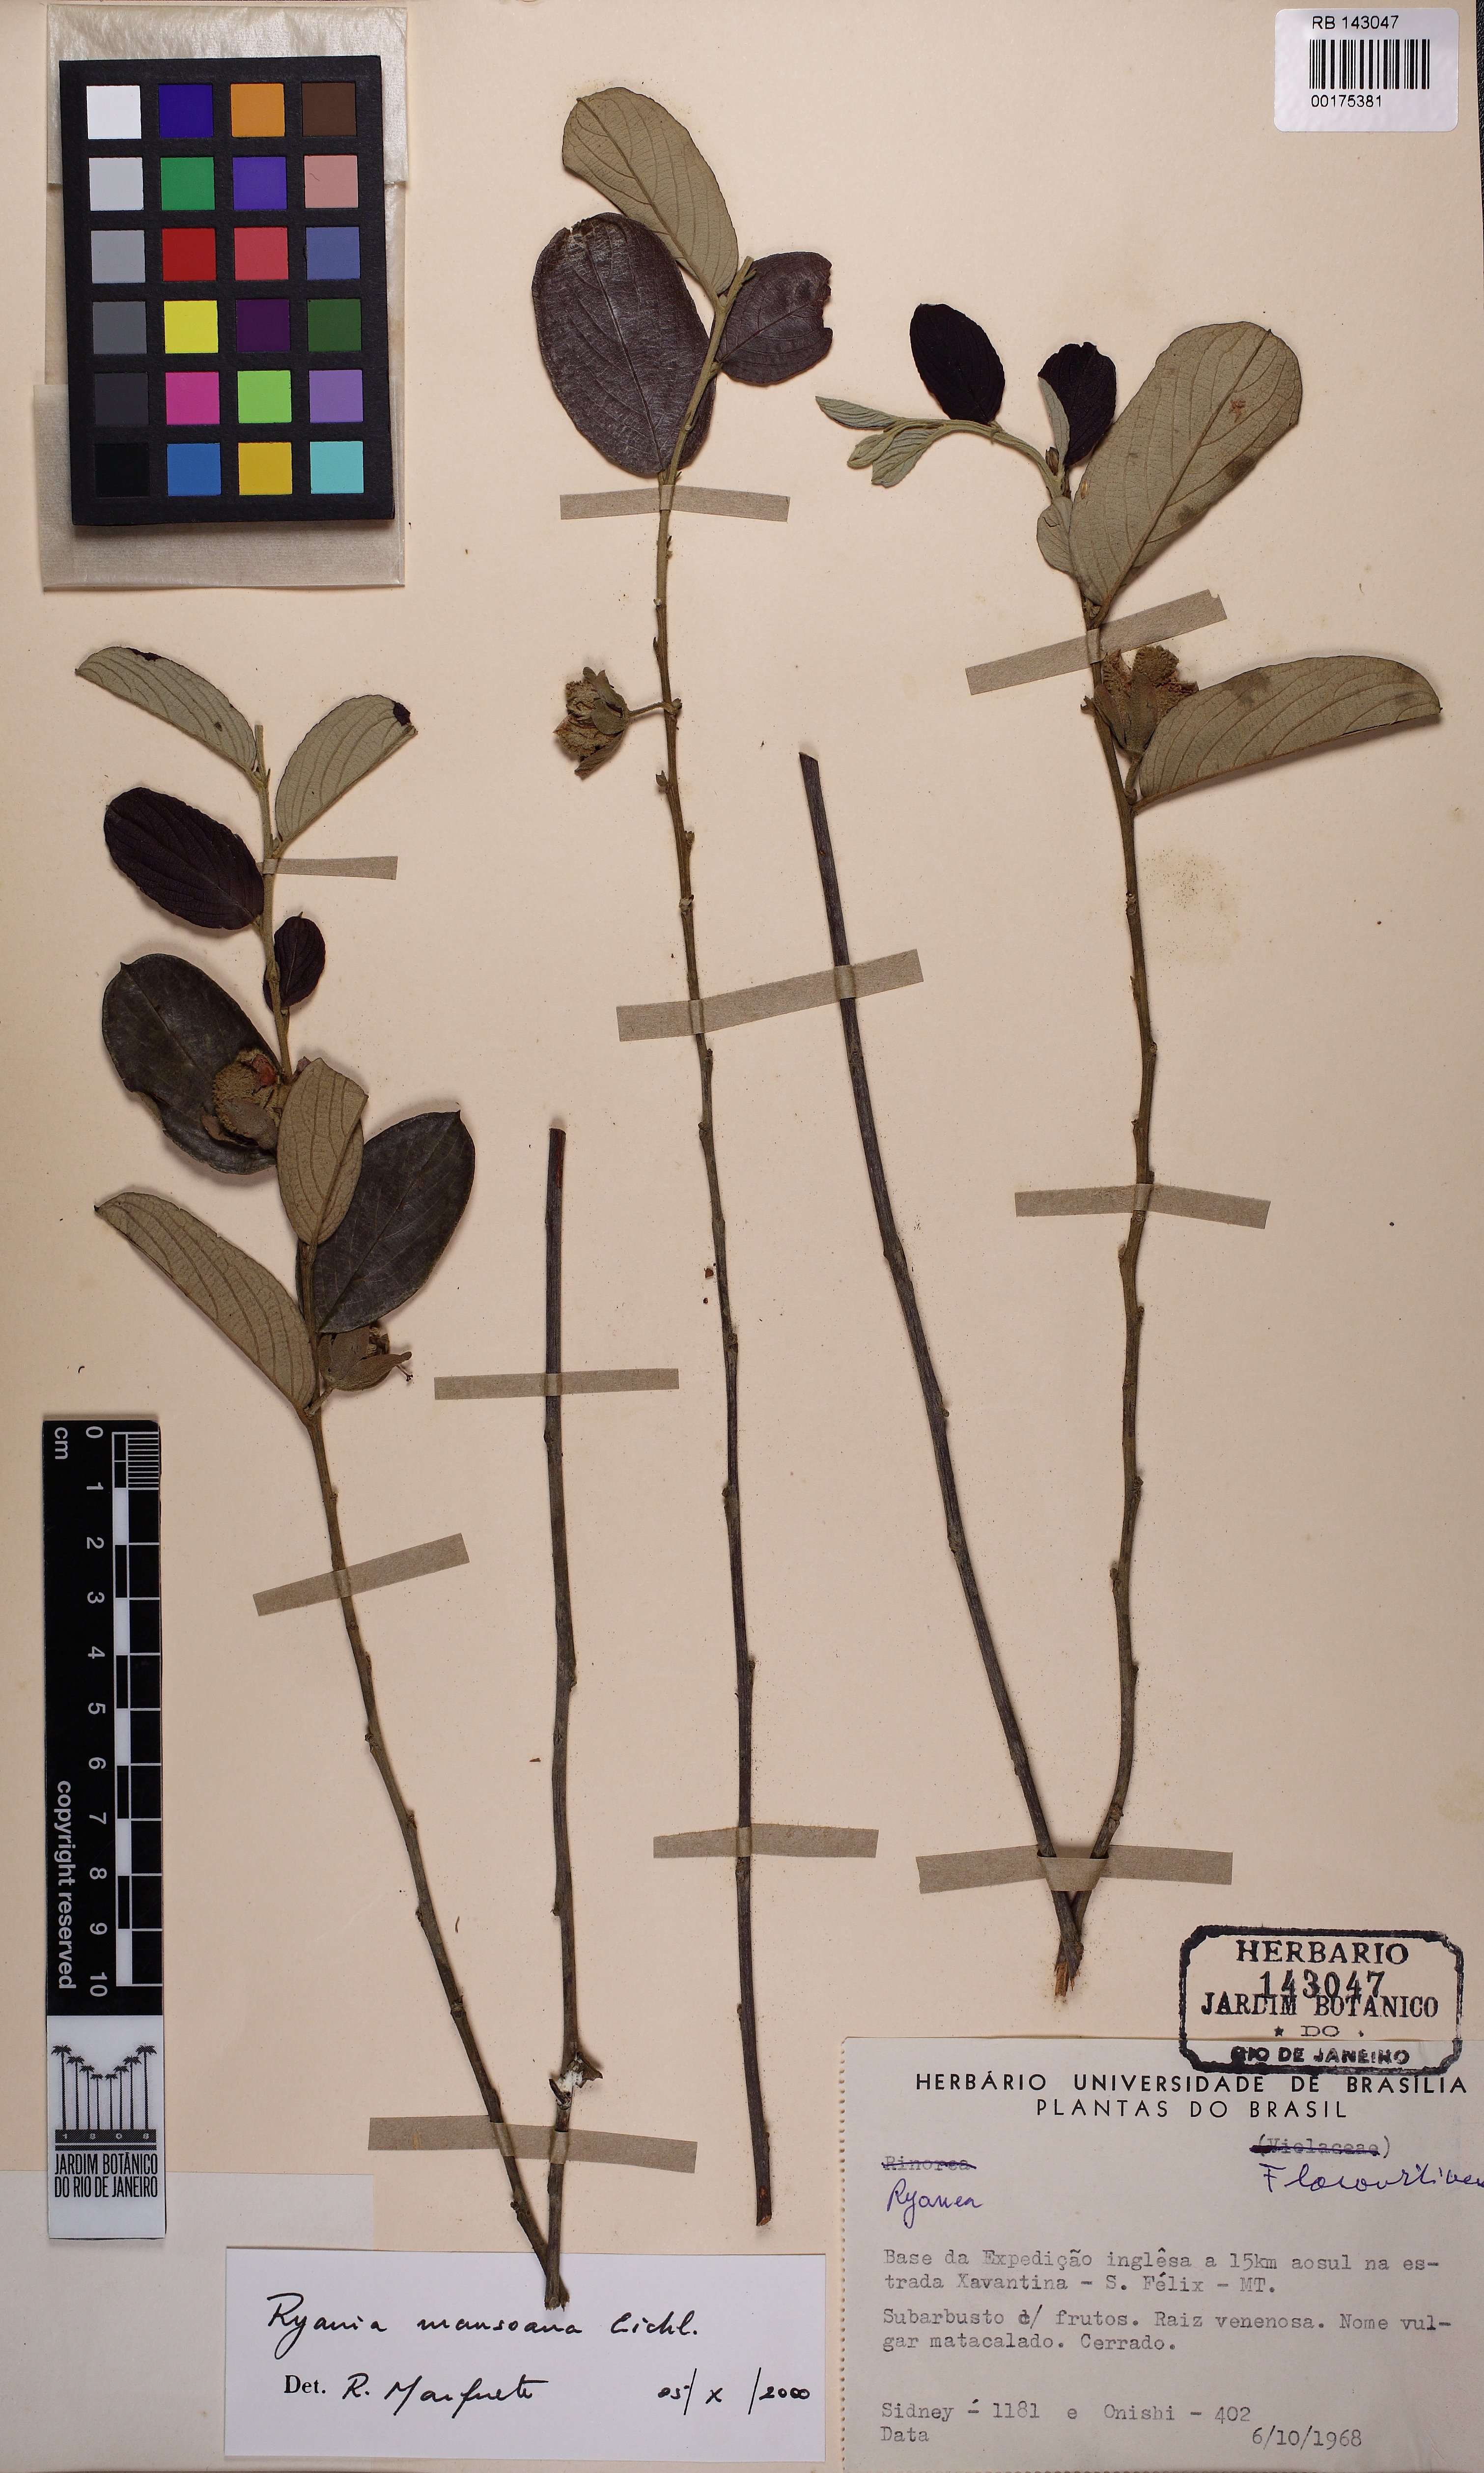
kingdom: Plantae
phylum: Tracheophyta
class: Magnoliopsida
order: Malpighiales
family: Salicaceae
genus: Ryania
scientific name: Ryania mansoana
